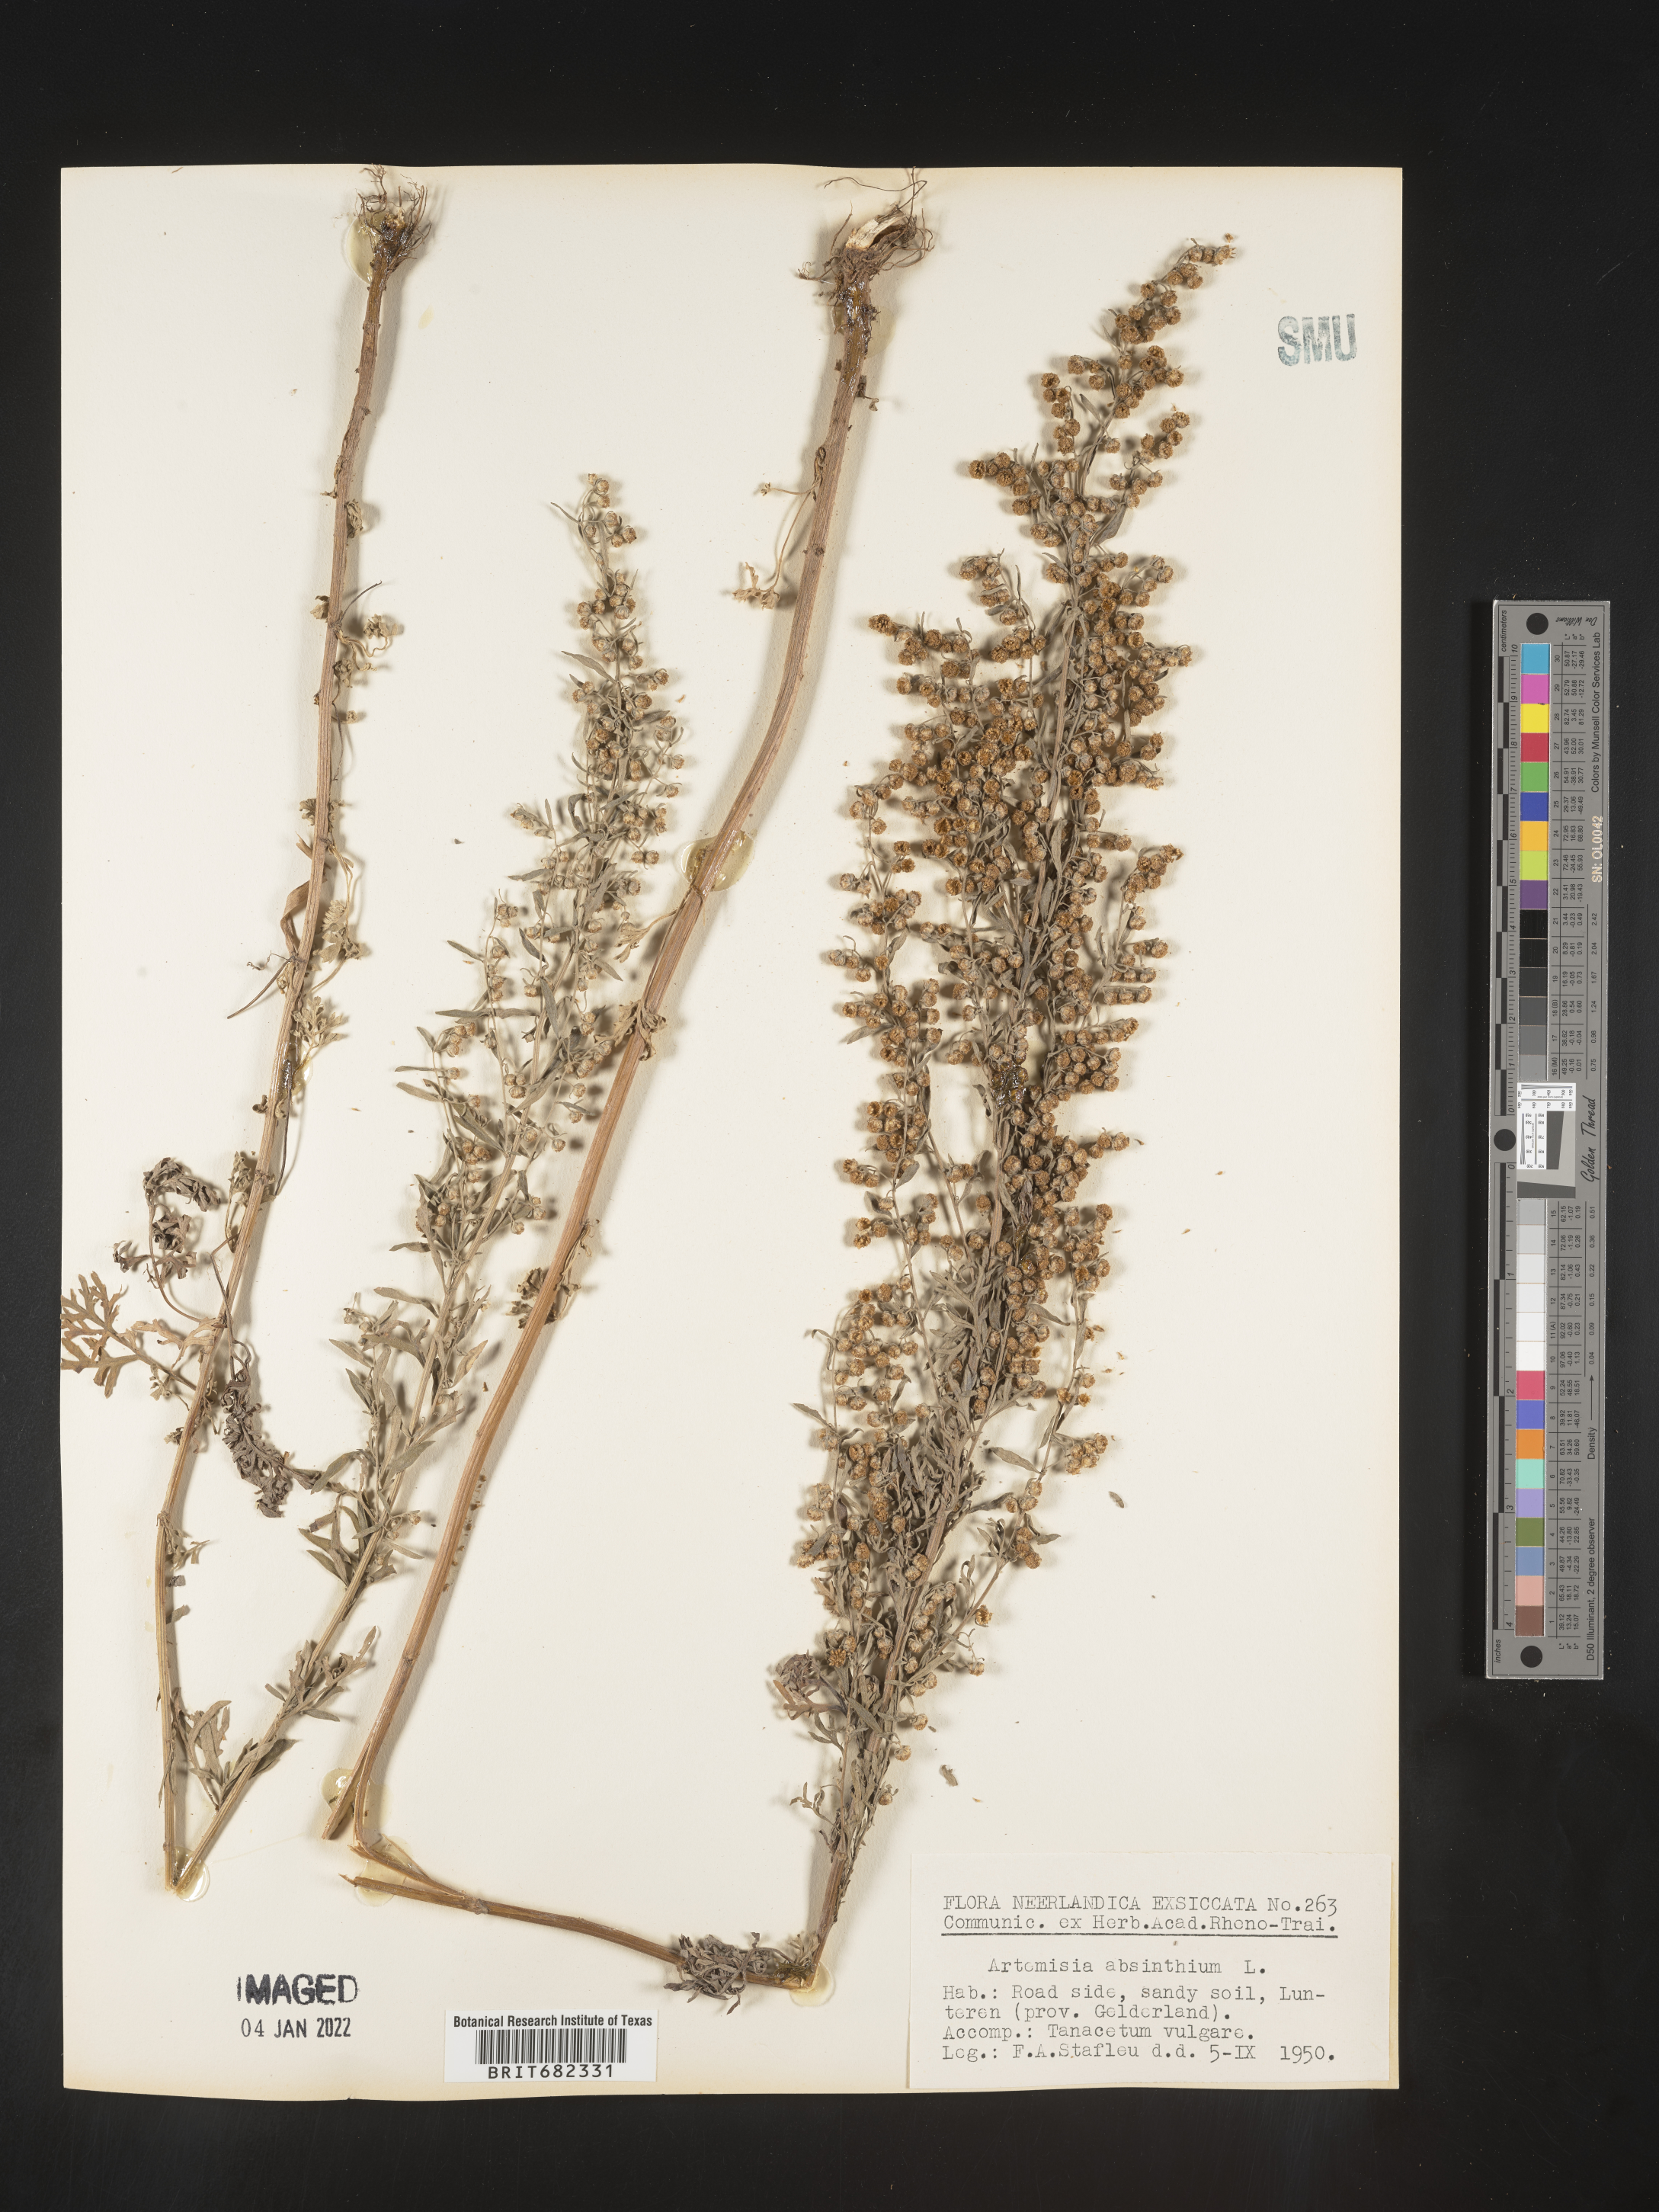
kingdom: Plantae
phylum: Tracheophyta
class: Magnoliopsida
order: Asterales
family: Asteraceae
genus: Artemisia
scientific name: Artemisia
